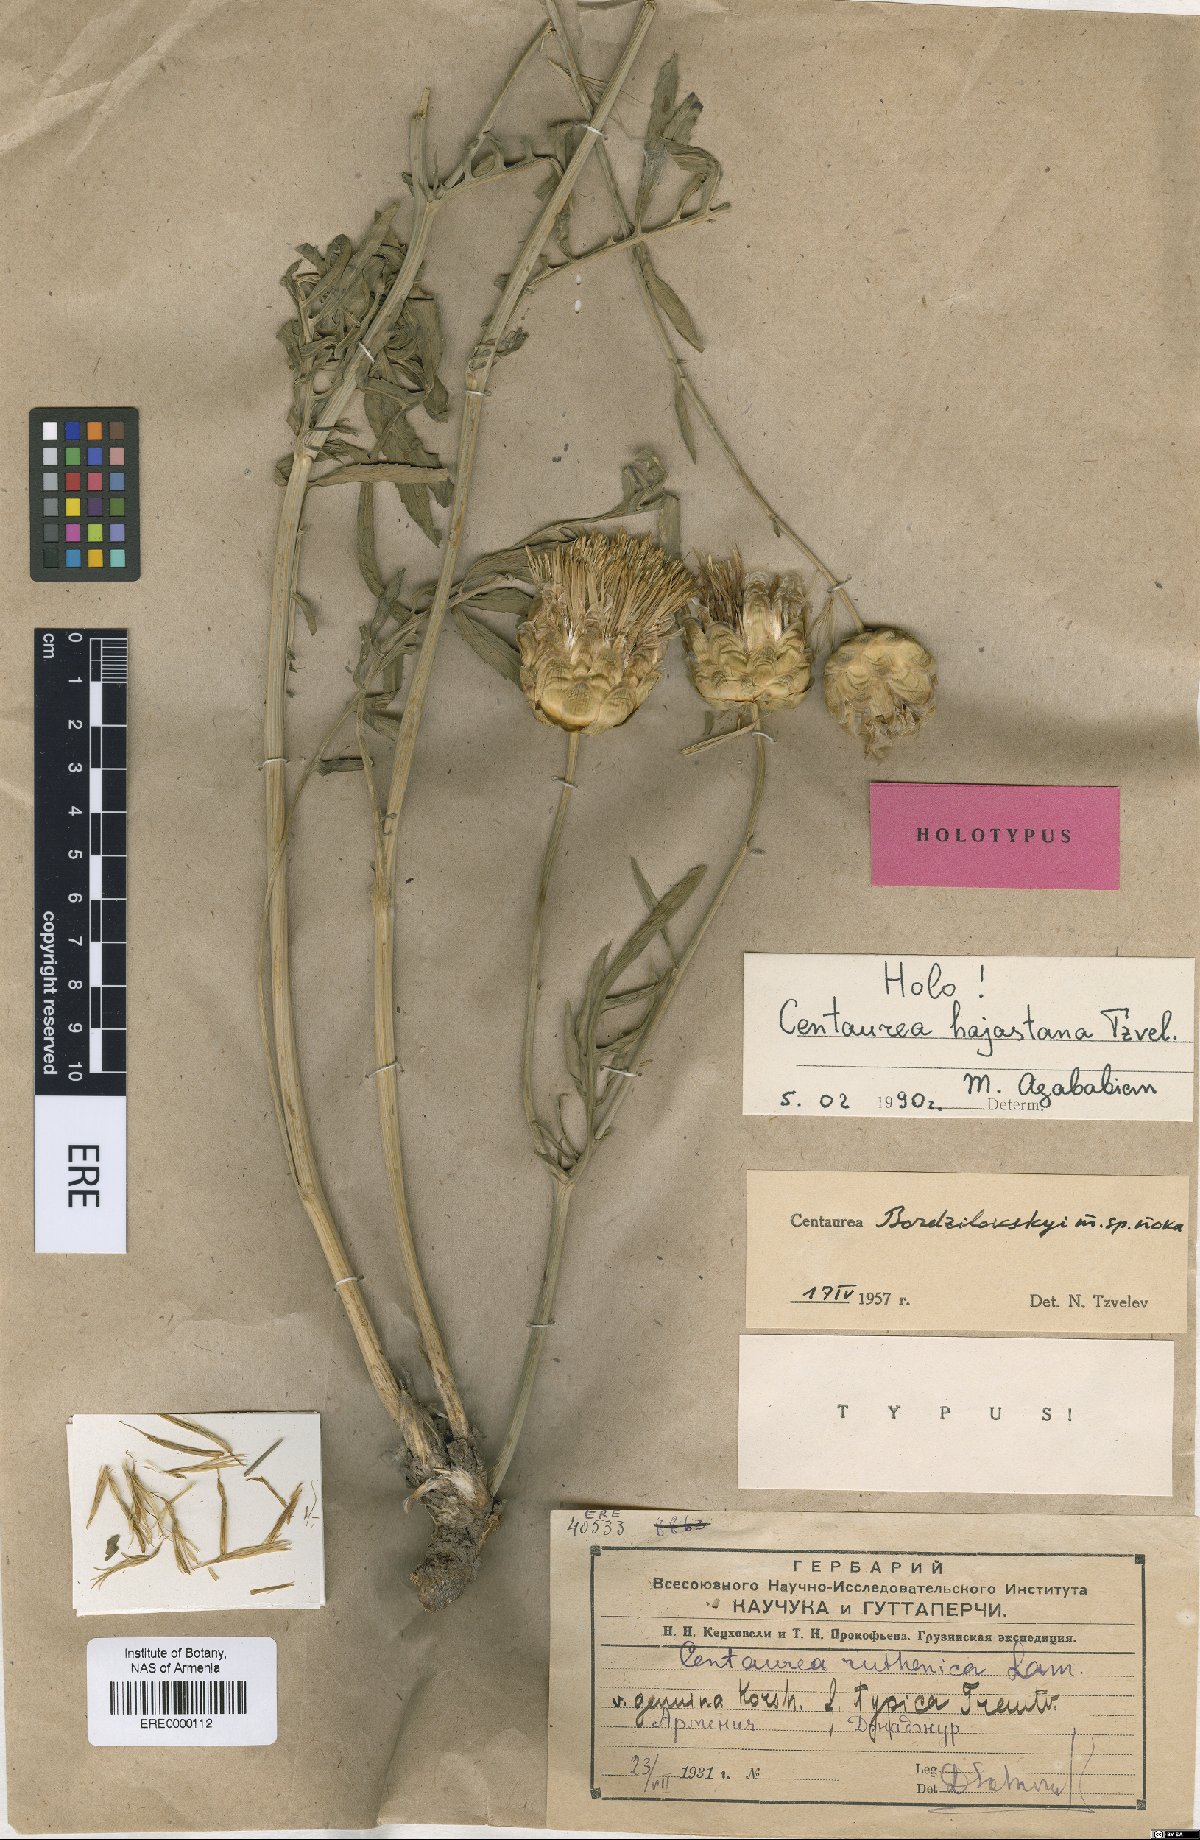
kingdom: Plantae
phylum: Tracheophyta
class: Magnoliopsida
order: Asterales
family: Asteraceae
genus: Rhaponticoides
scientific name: Rhaponticoides hajastana
